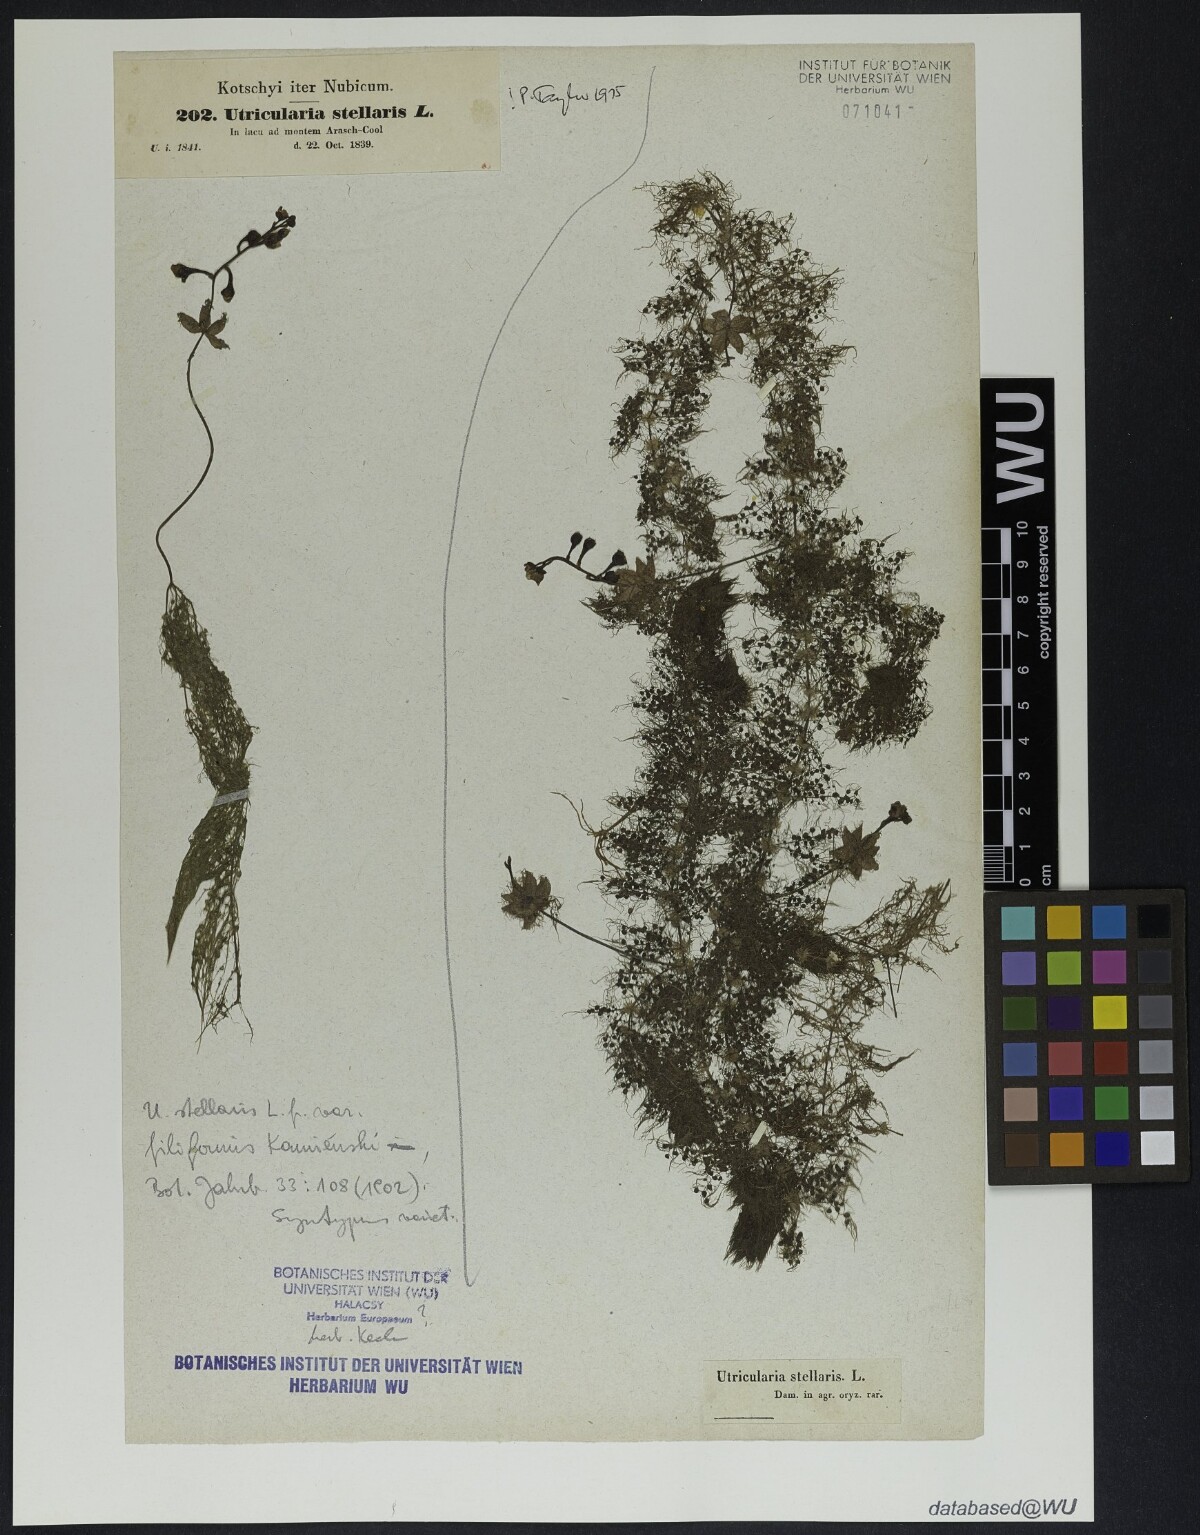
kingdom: Plantae
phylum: Tracheophyta
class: Magnoliopsida
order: Lamiales
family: Lentibulariaceae
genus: Utricularia
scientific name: Utricularia stellaris
